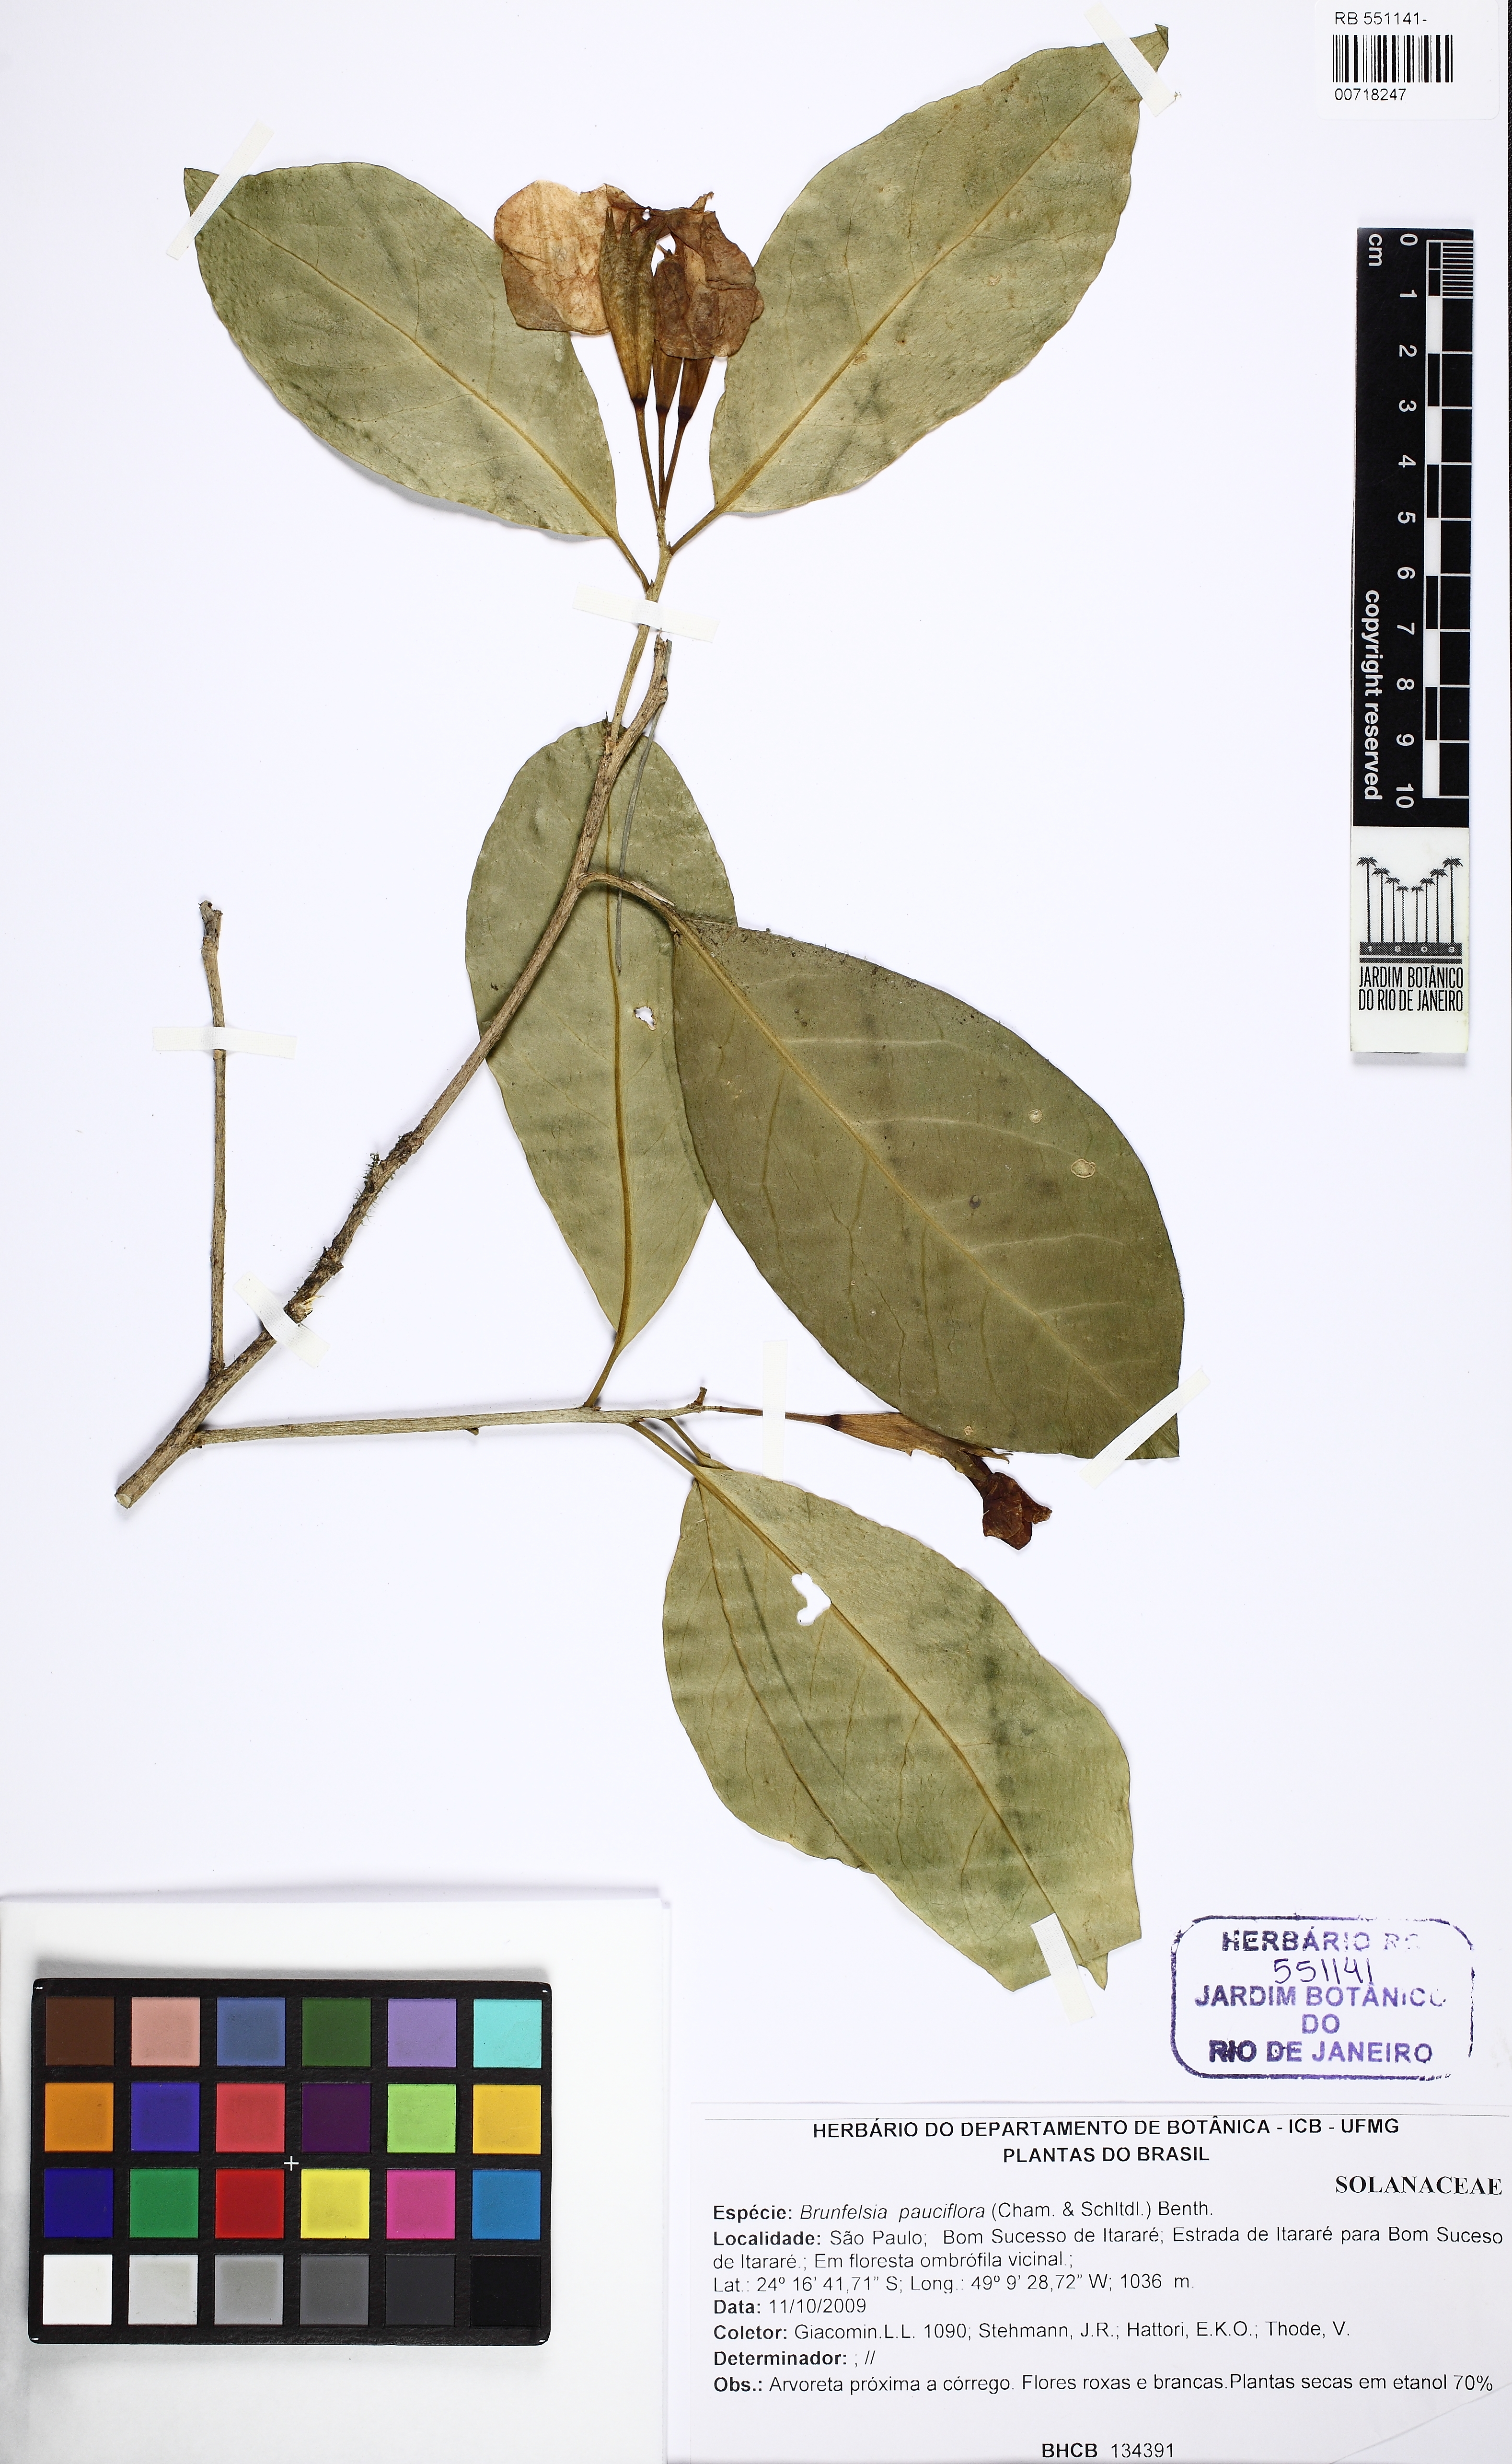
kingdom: Plantae
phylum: Tracheophyta
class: Magnoliopsida
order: Solanales
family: Solanaceae
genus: Brunfelsia
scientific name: Brunfelsia pauciflora
